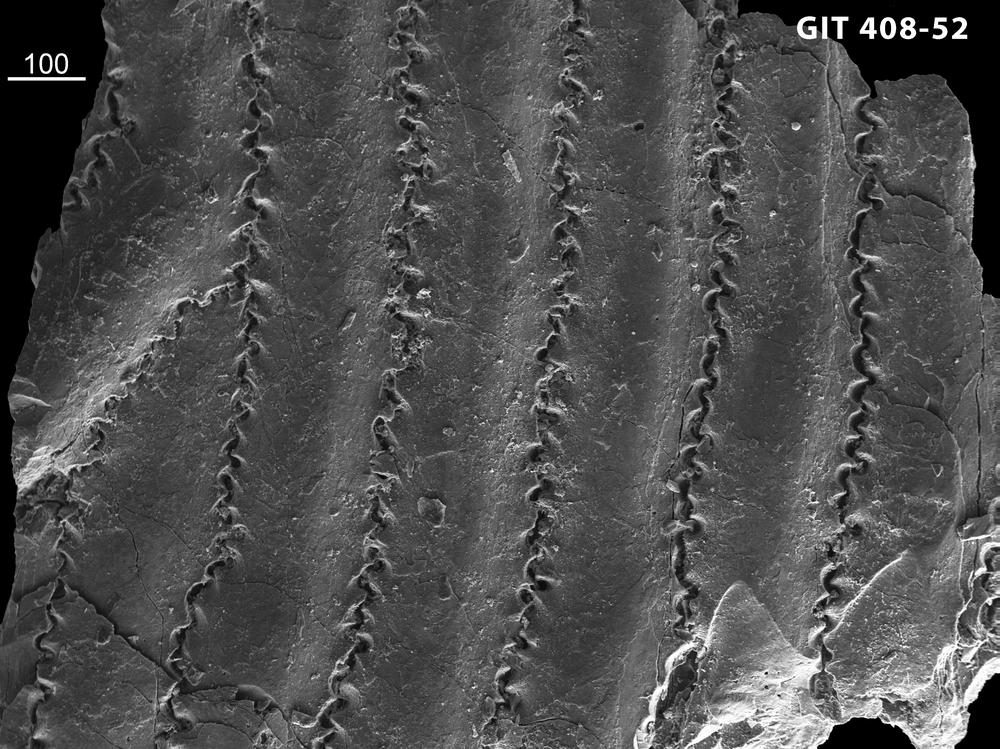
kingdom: Animalia
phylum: Chordata
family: Cyathaspididae
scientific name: Cyathaspididae
